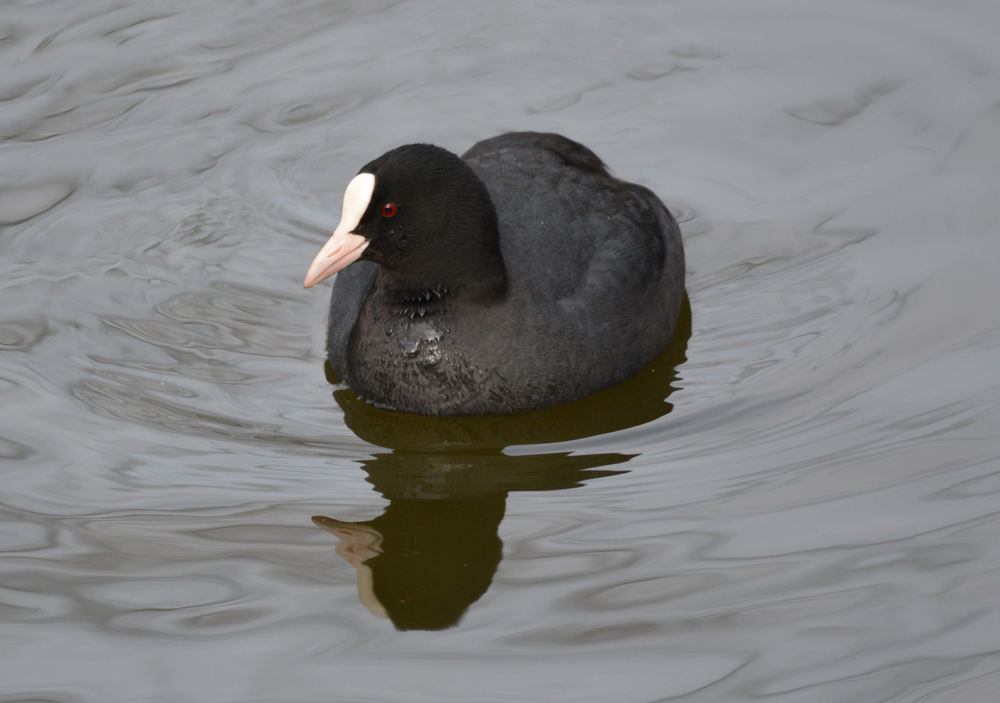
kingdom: Animalia
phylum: Chordata
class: Aves
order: Gruiformes
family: Rallidae
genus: Fulica
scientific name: Fulica atra
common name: Eurasian coot
